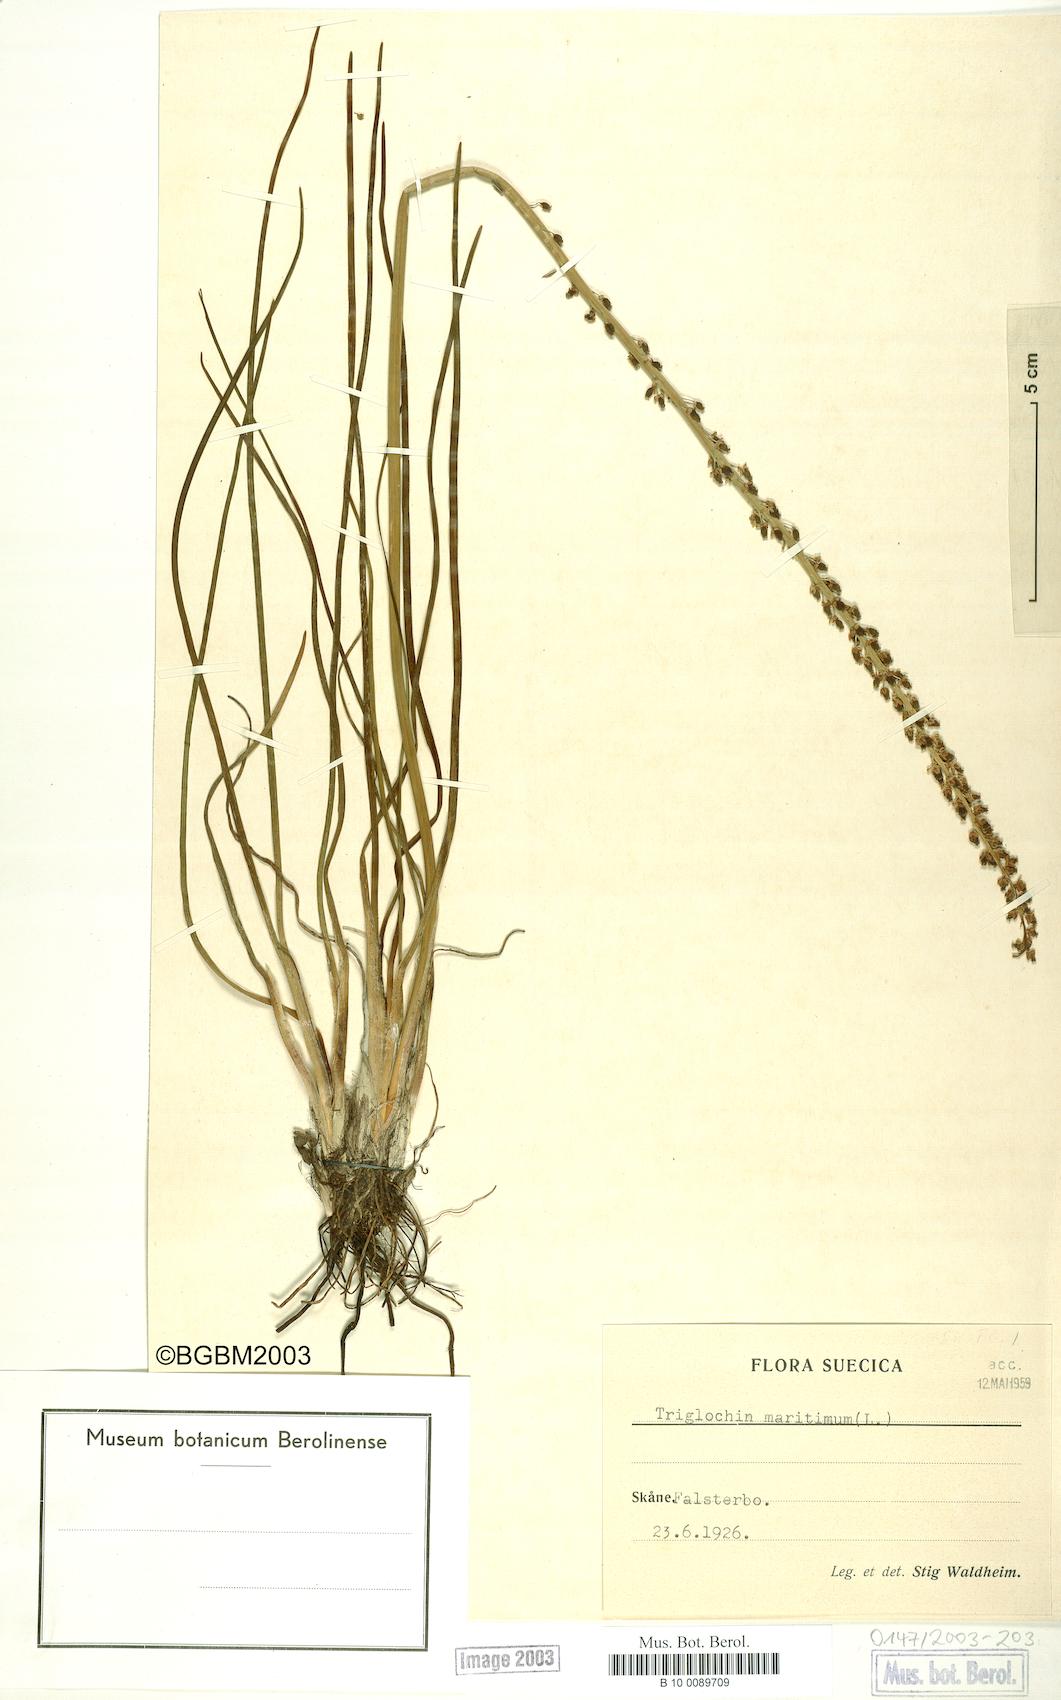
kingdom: Plantae
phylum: Tracheophyta
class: Liliopsida
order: Alismatales
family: Juncaginaceae
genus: Triglochin
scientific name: Triglochin maritima
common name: Sea arrowgrass
